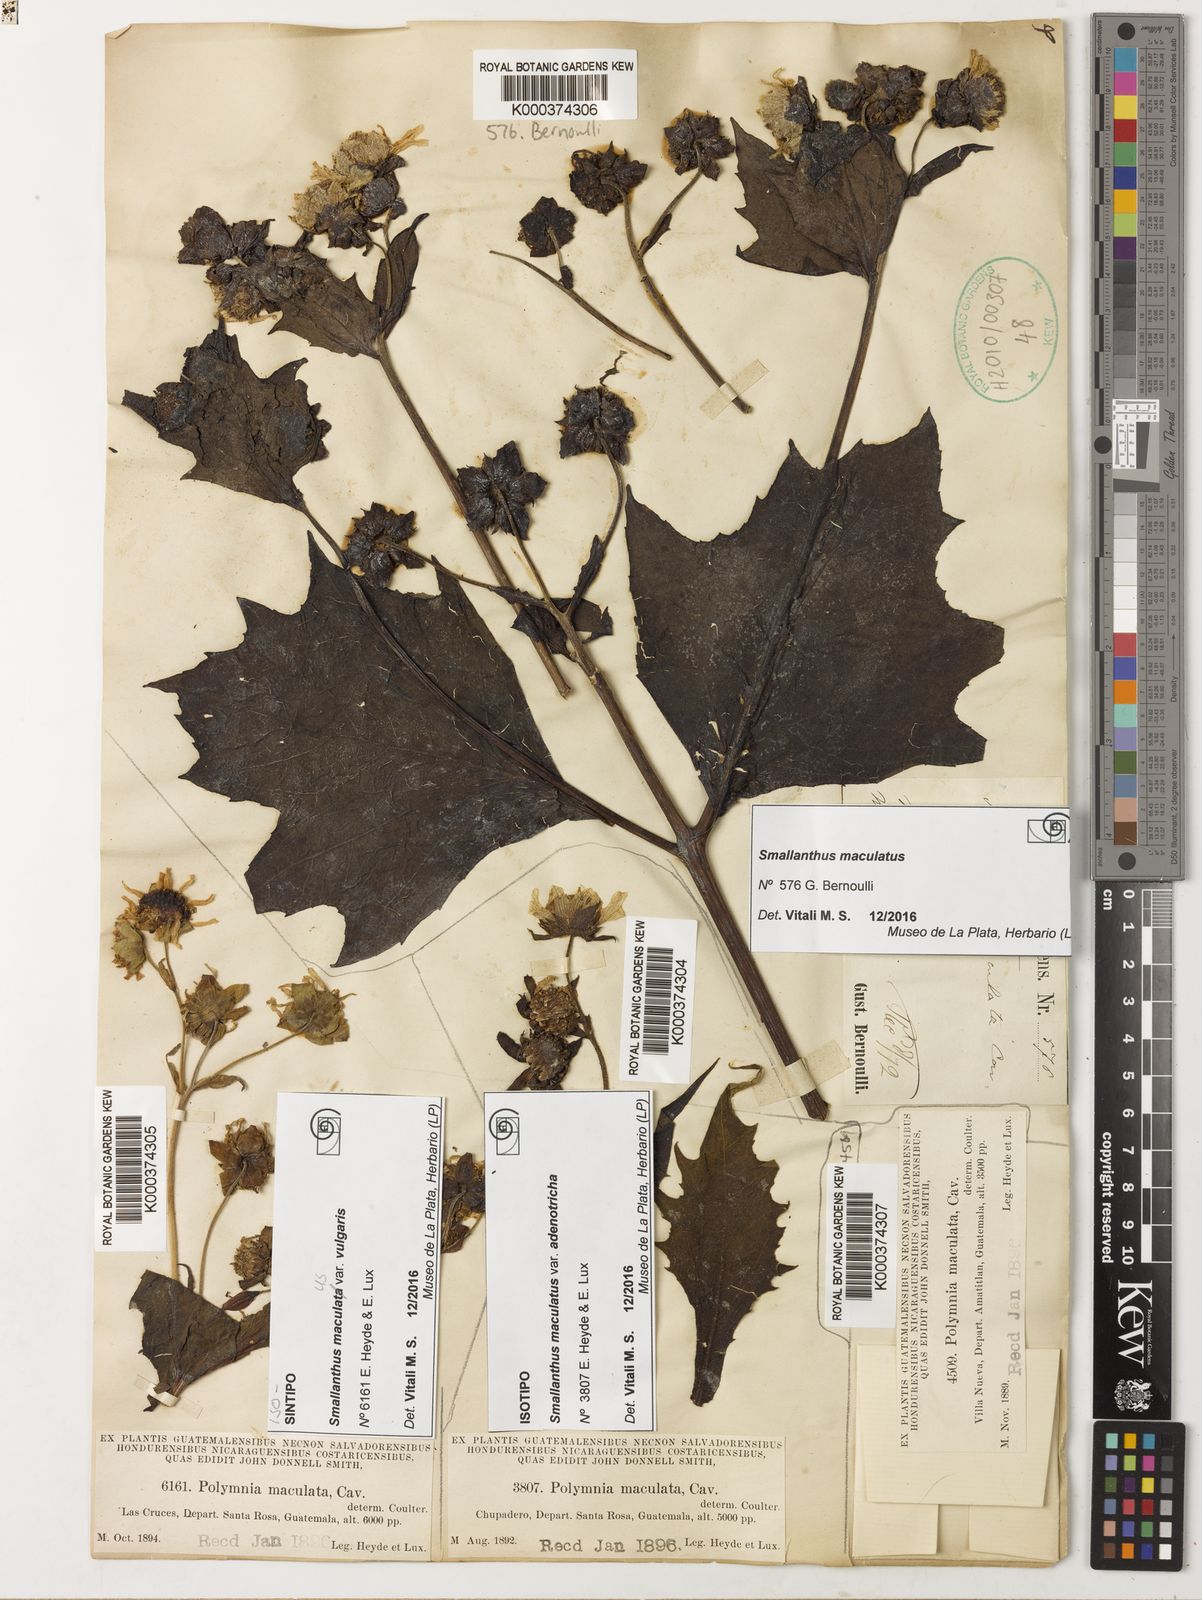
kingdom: Plantae
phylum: Tracheophyta
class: Magnoliopsida
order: Asterales
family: Asteraceae
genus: Smallanthus
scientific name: Smallanthus maculatus
